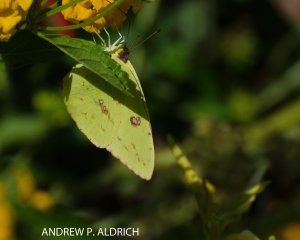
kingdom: Animalia
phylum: Arthropoda
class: Insecta
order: Lepidoptera
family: Pieridae
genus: Colias
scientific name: Colias philodice
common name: Clouded Sulphur
